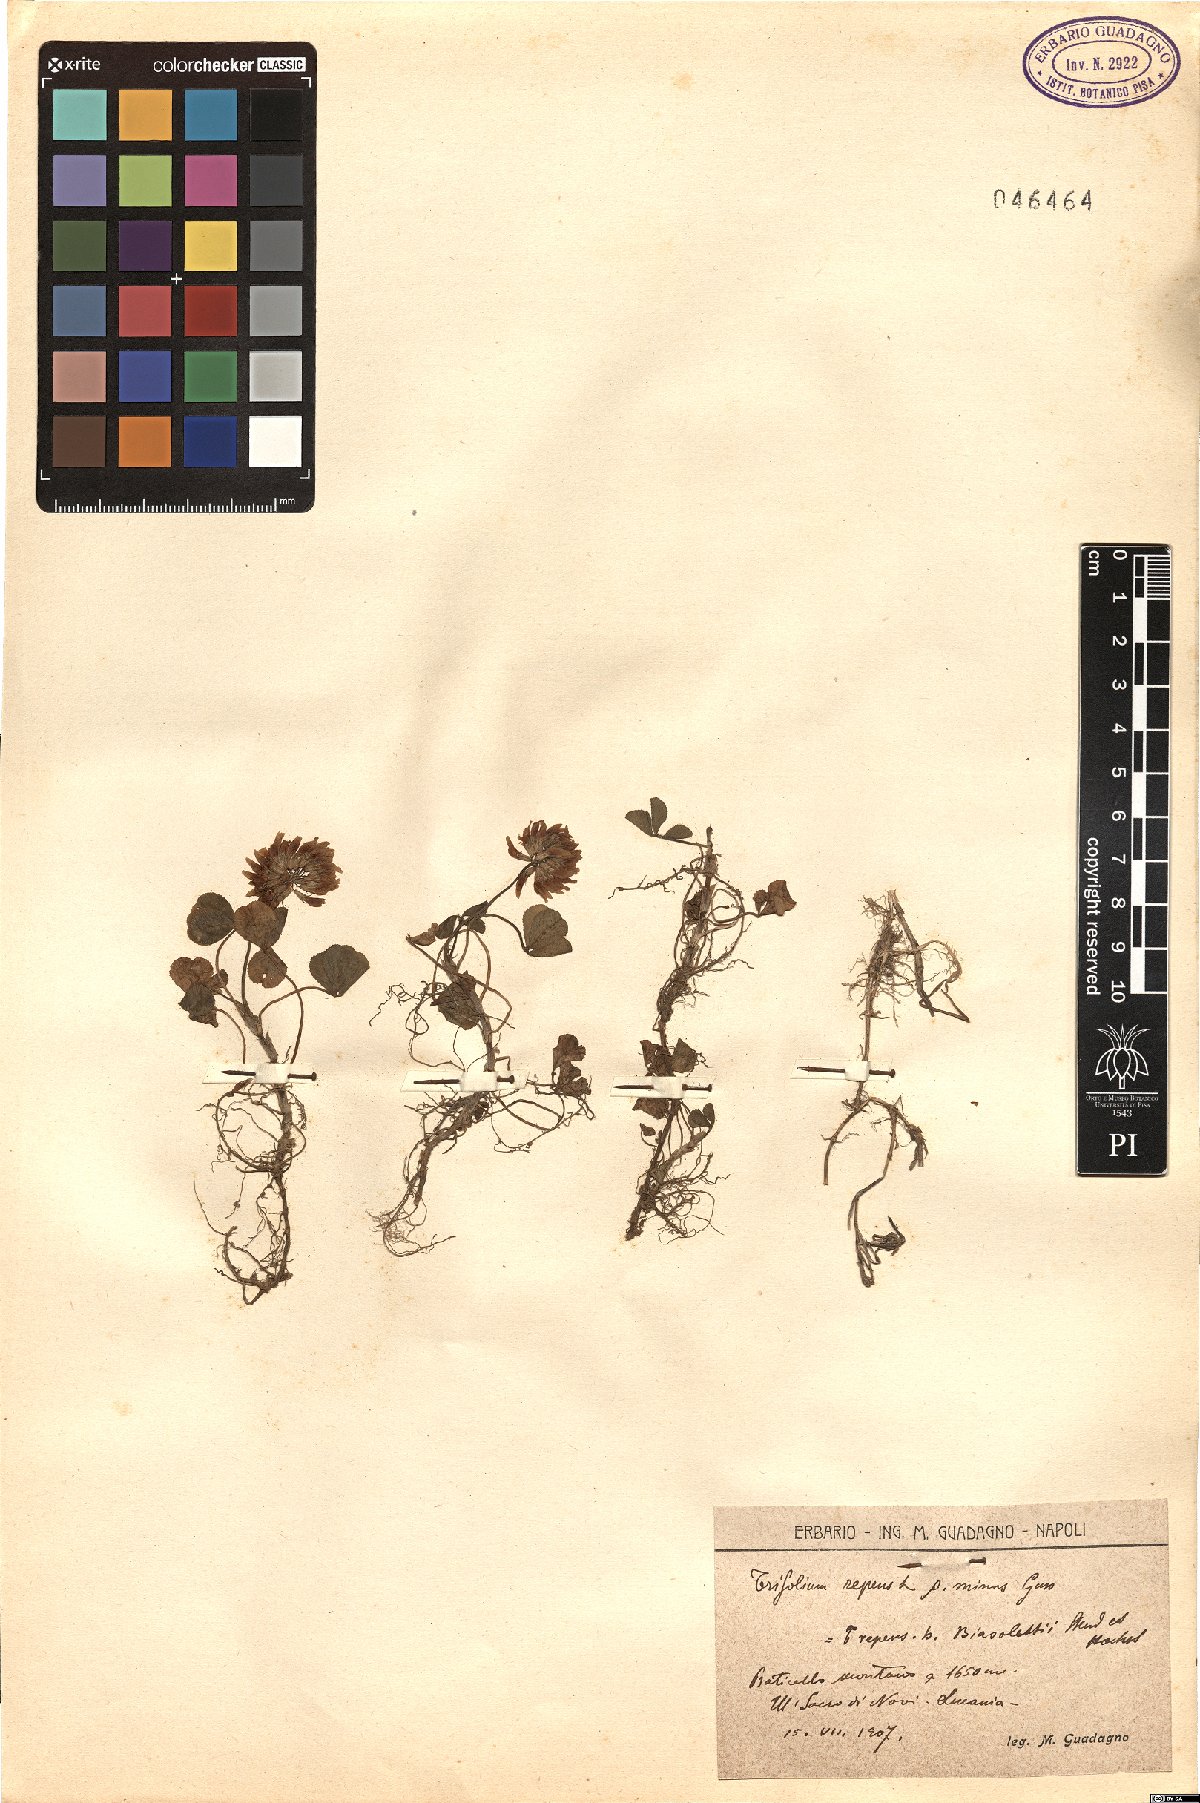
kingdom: Plantae
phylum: Tracheophyta
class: Magnoliopsida
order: Fabales
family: Fabaceae
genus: Trifolium
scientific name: Trifolium repens
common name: White clover
